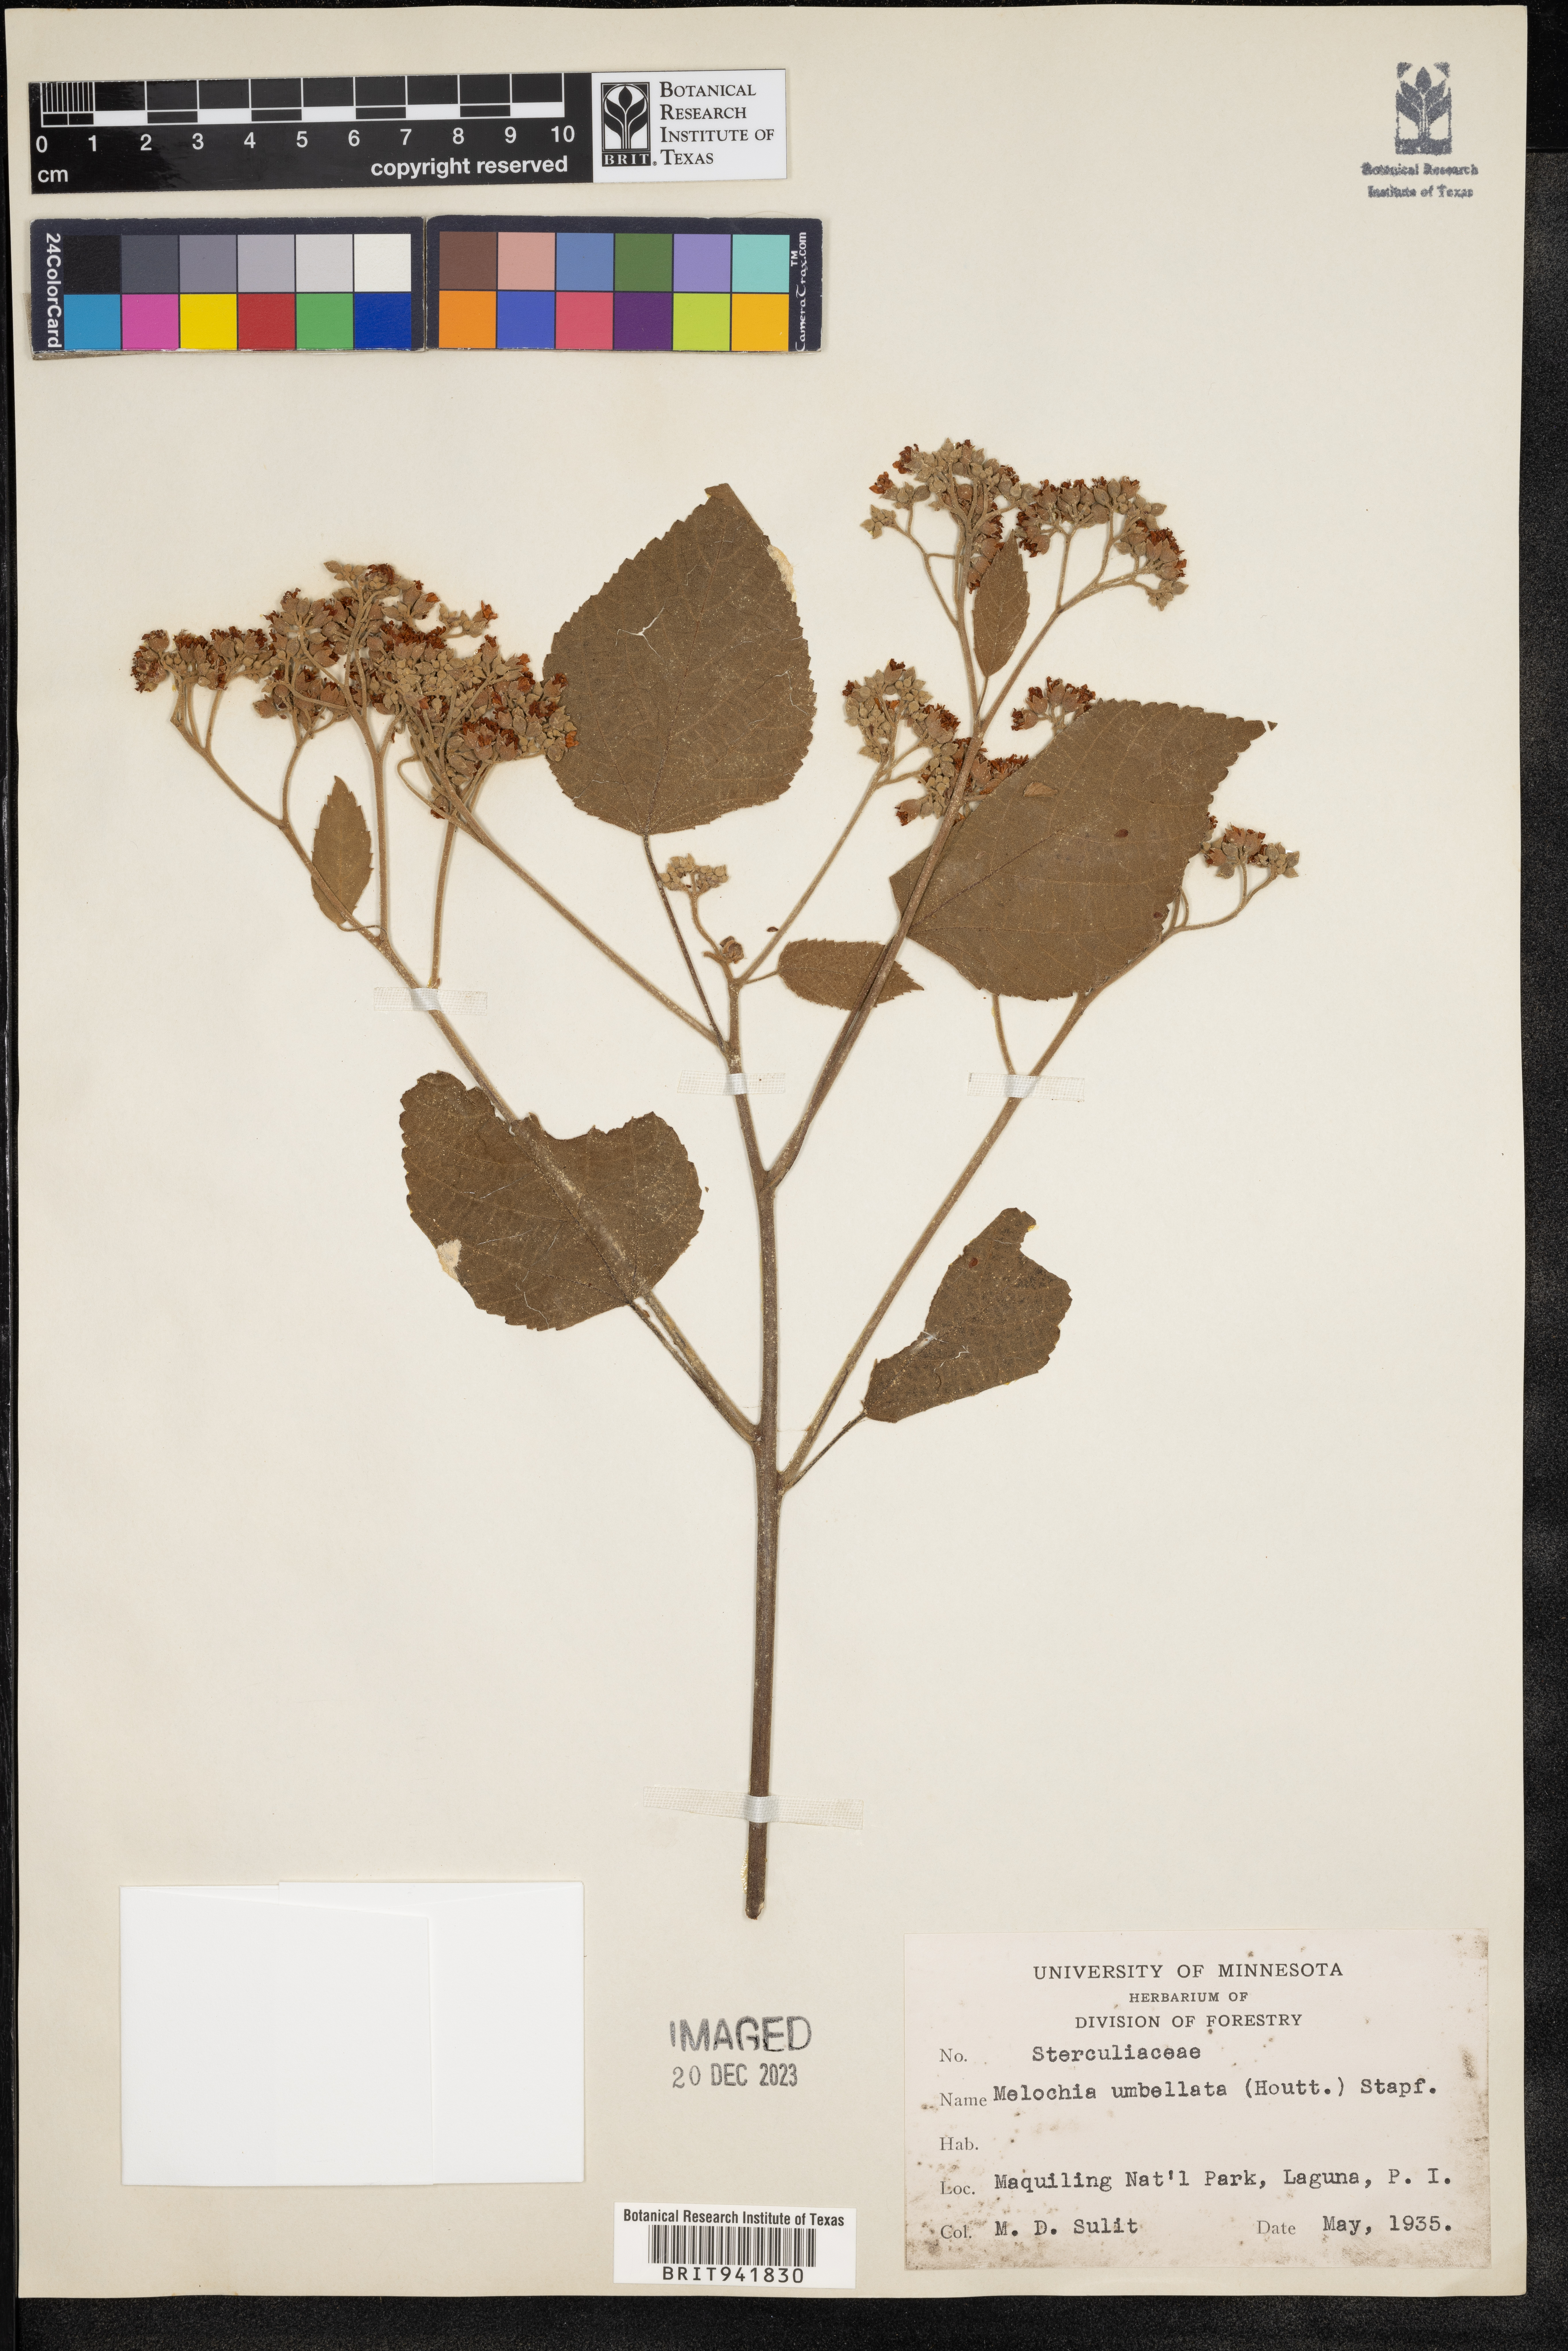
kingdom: Plantae
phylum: Tracheophyta
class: Magnoliopsida
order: Malvales
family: Malvaceae
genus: Melochia
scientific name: Melochia
